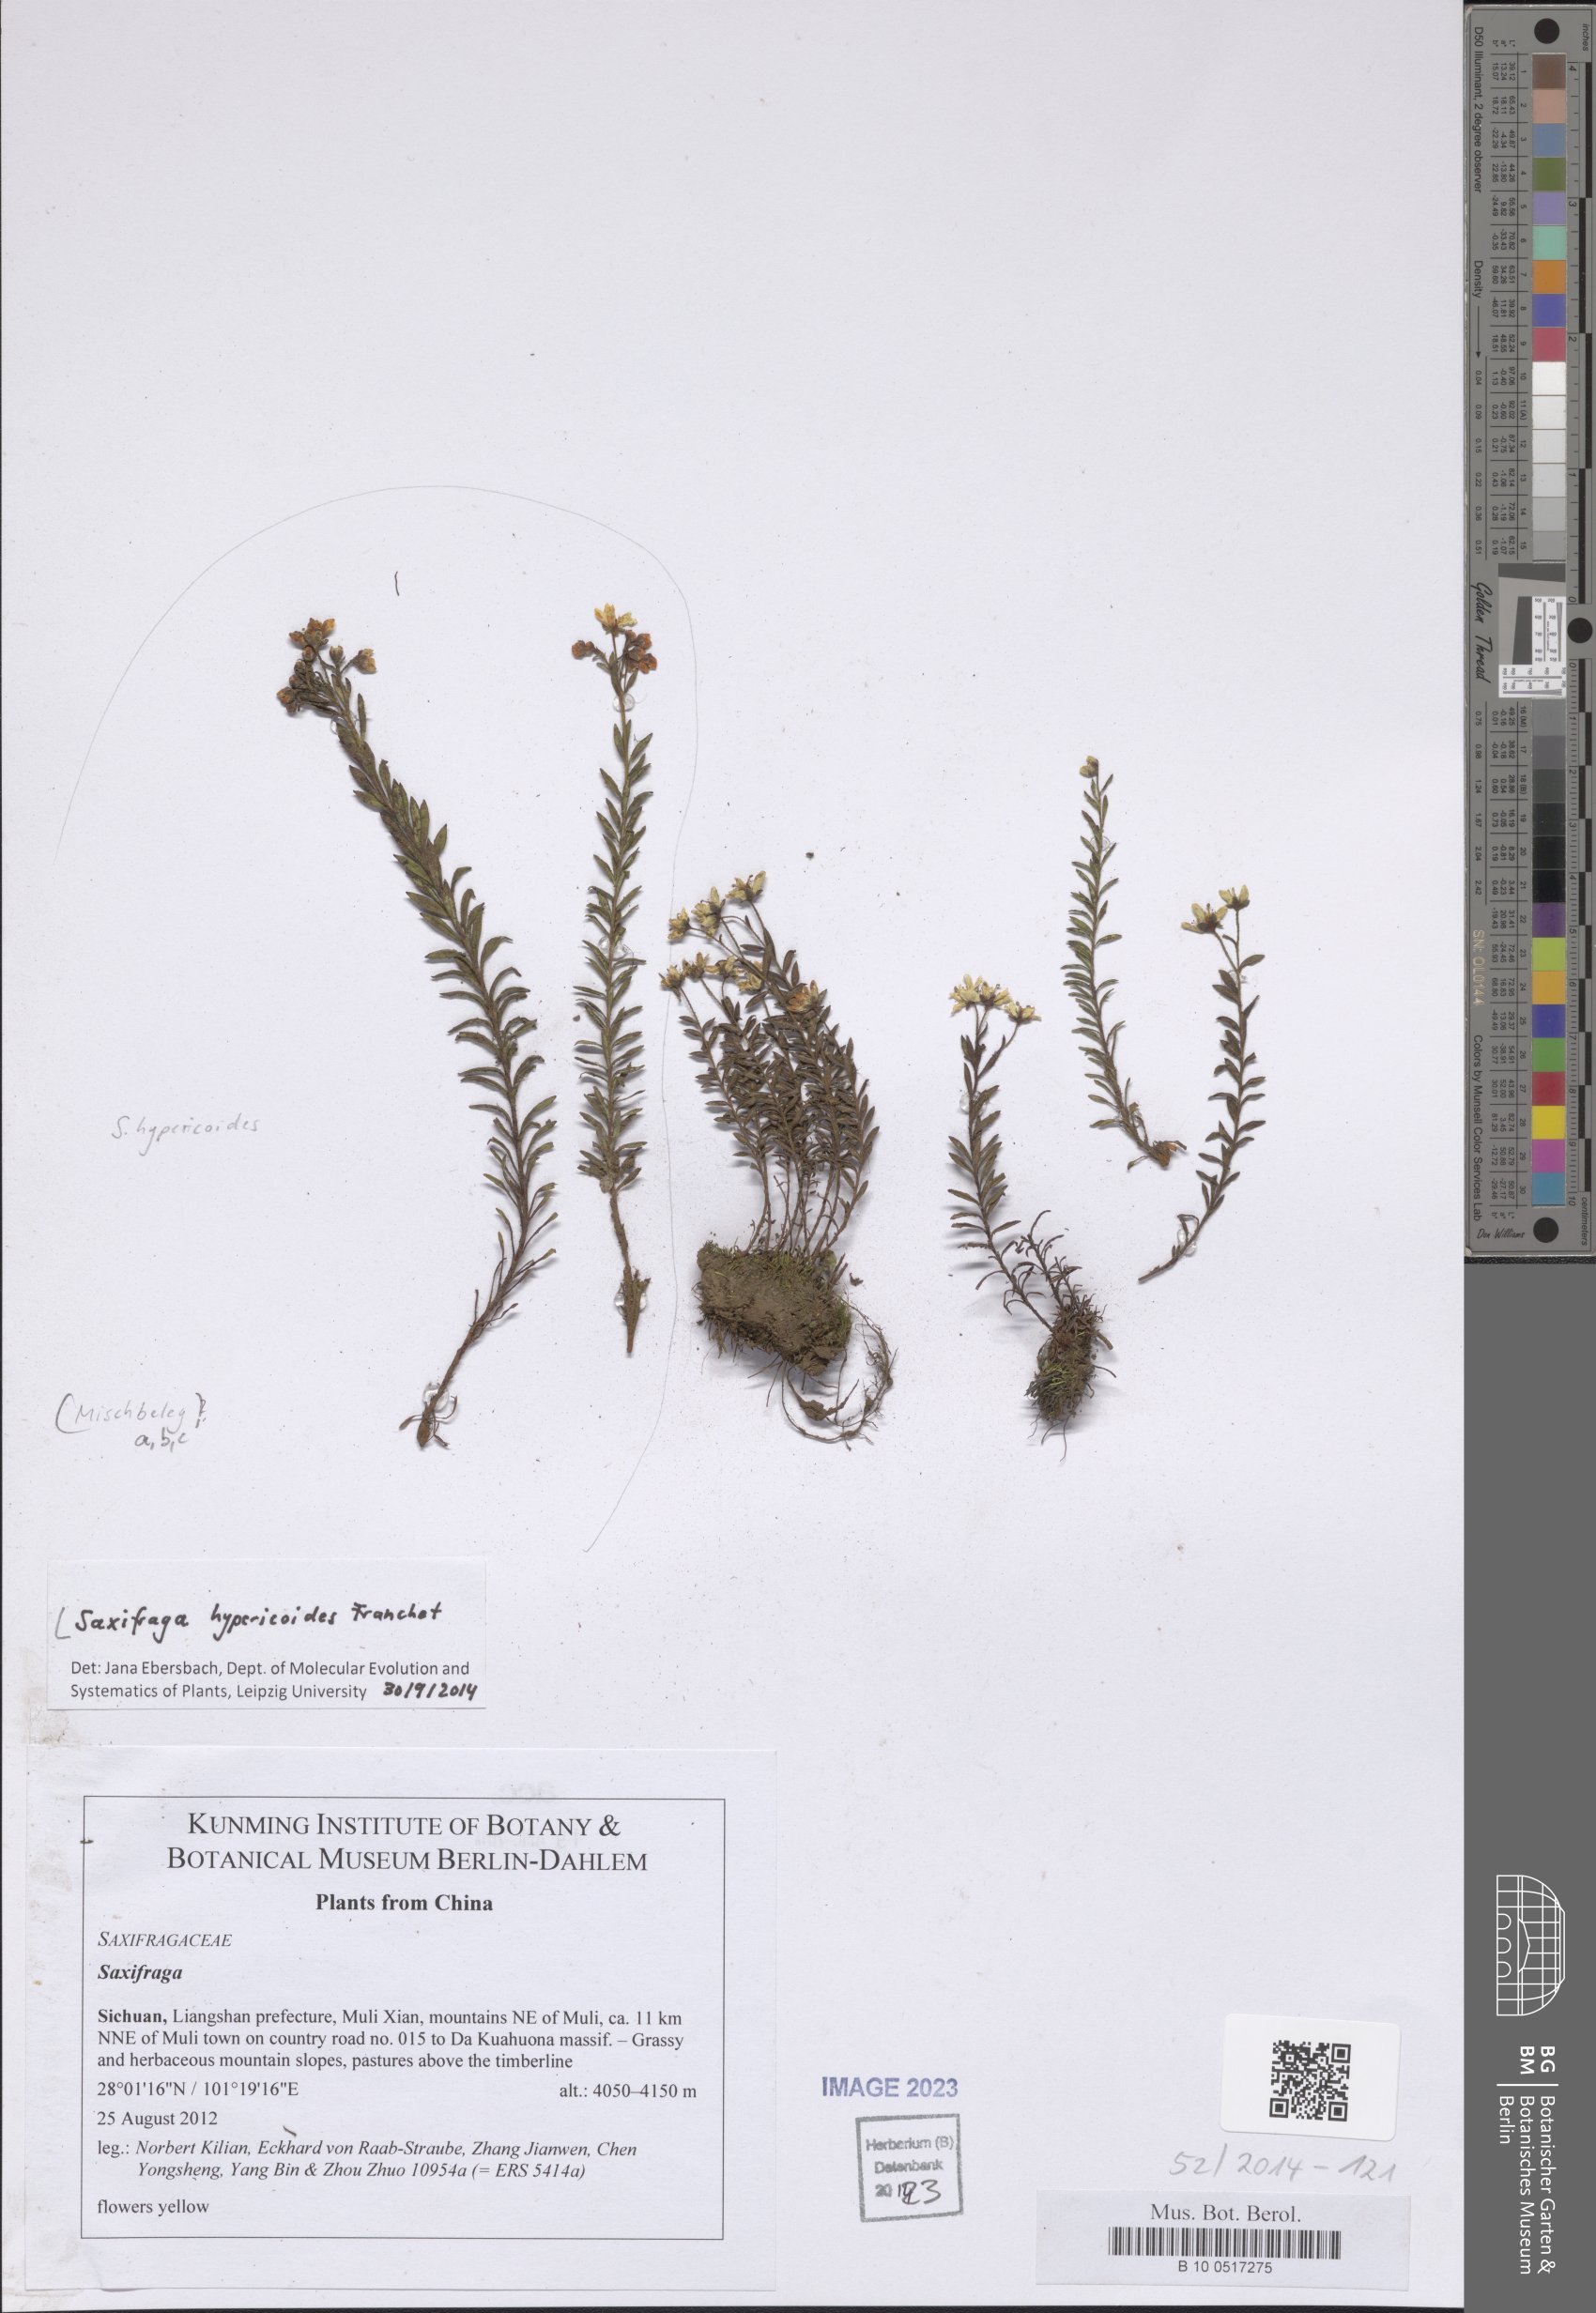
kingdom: Plantae
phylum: Tracheophyta
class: Magnoliopsida
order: Saxifragales
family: Saxifragaceae
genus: Saxifraga
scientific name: Saxifraga hypericoides
